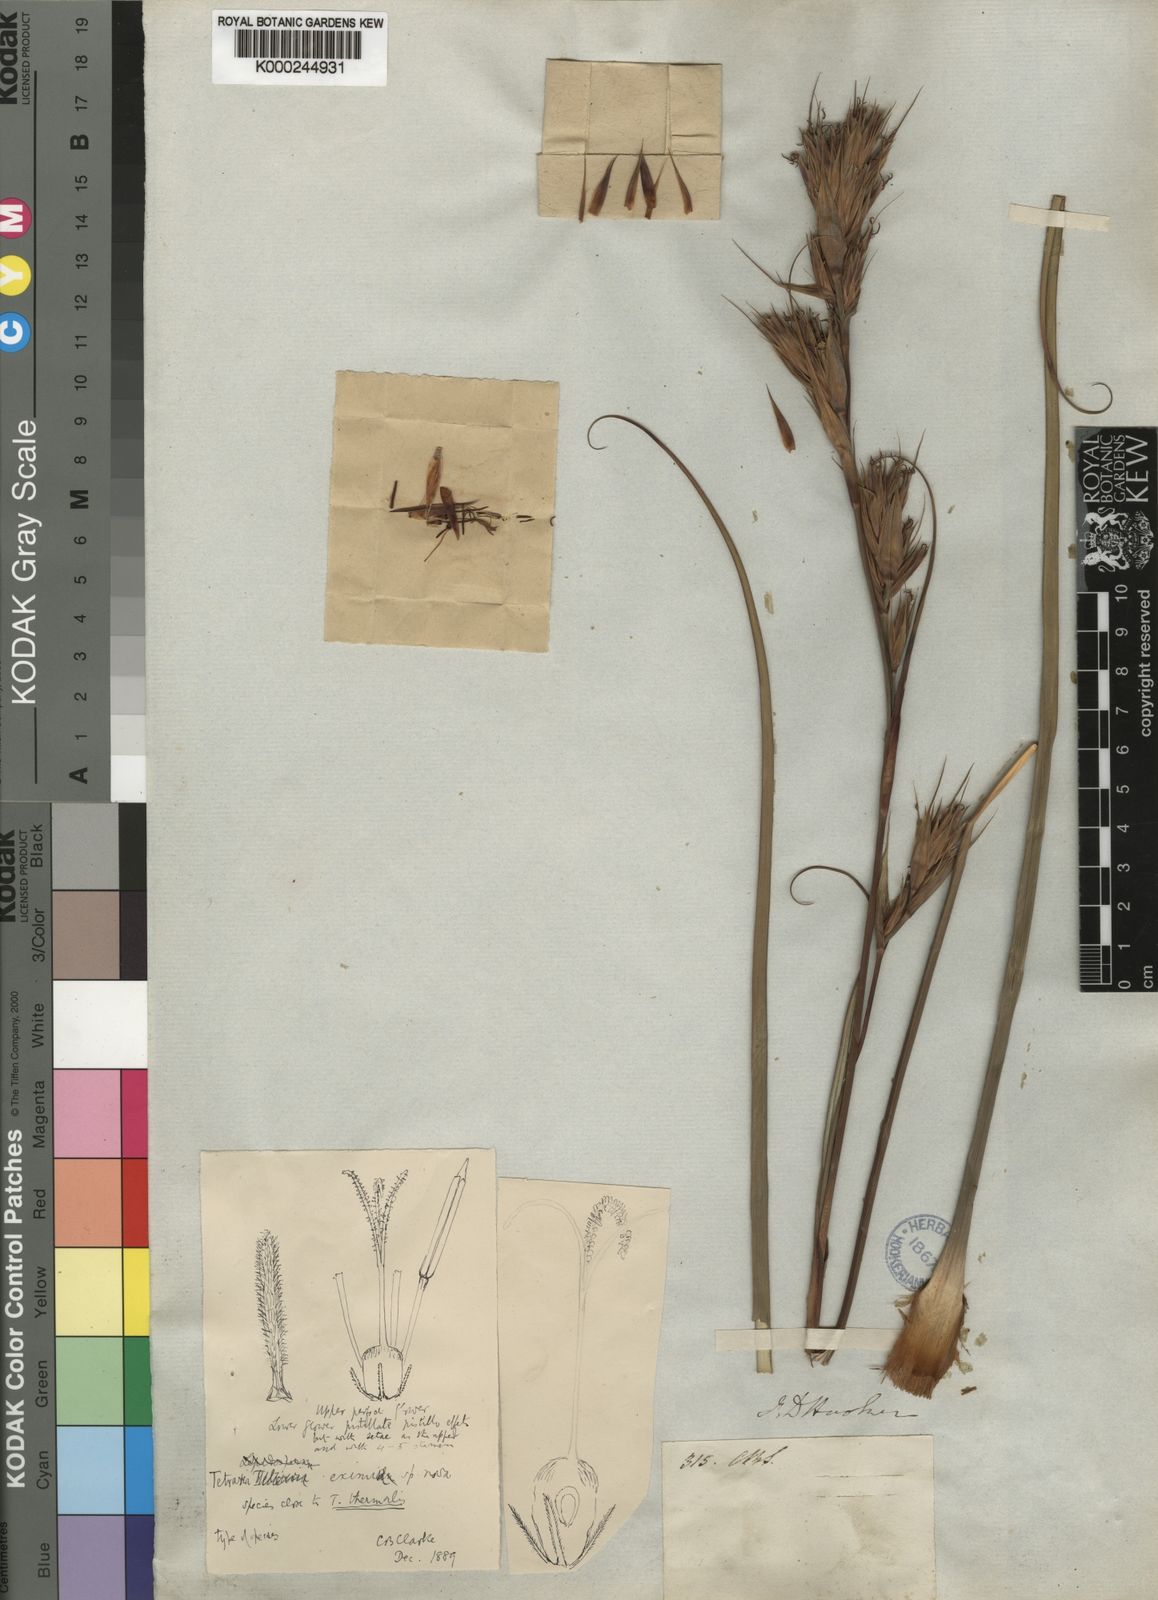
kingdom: Plantae
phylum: Tracheophyta
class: Liliopsida
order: Poales
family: Cyperaceae
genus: Tetraria
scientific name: Tetraria eximia
